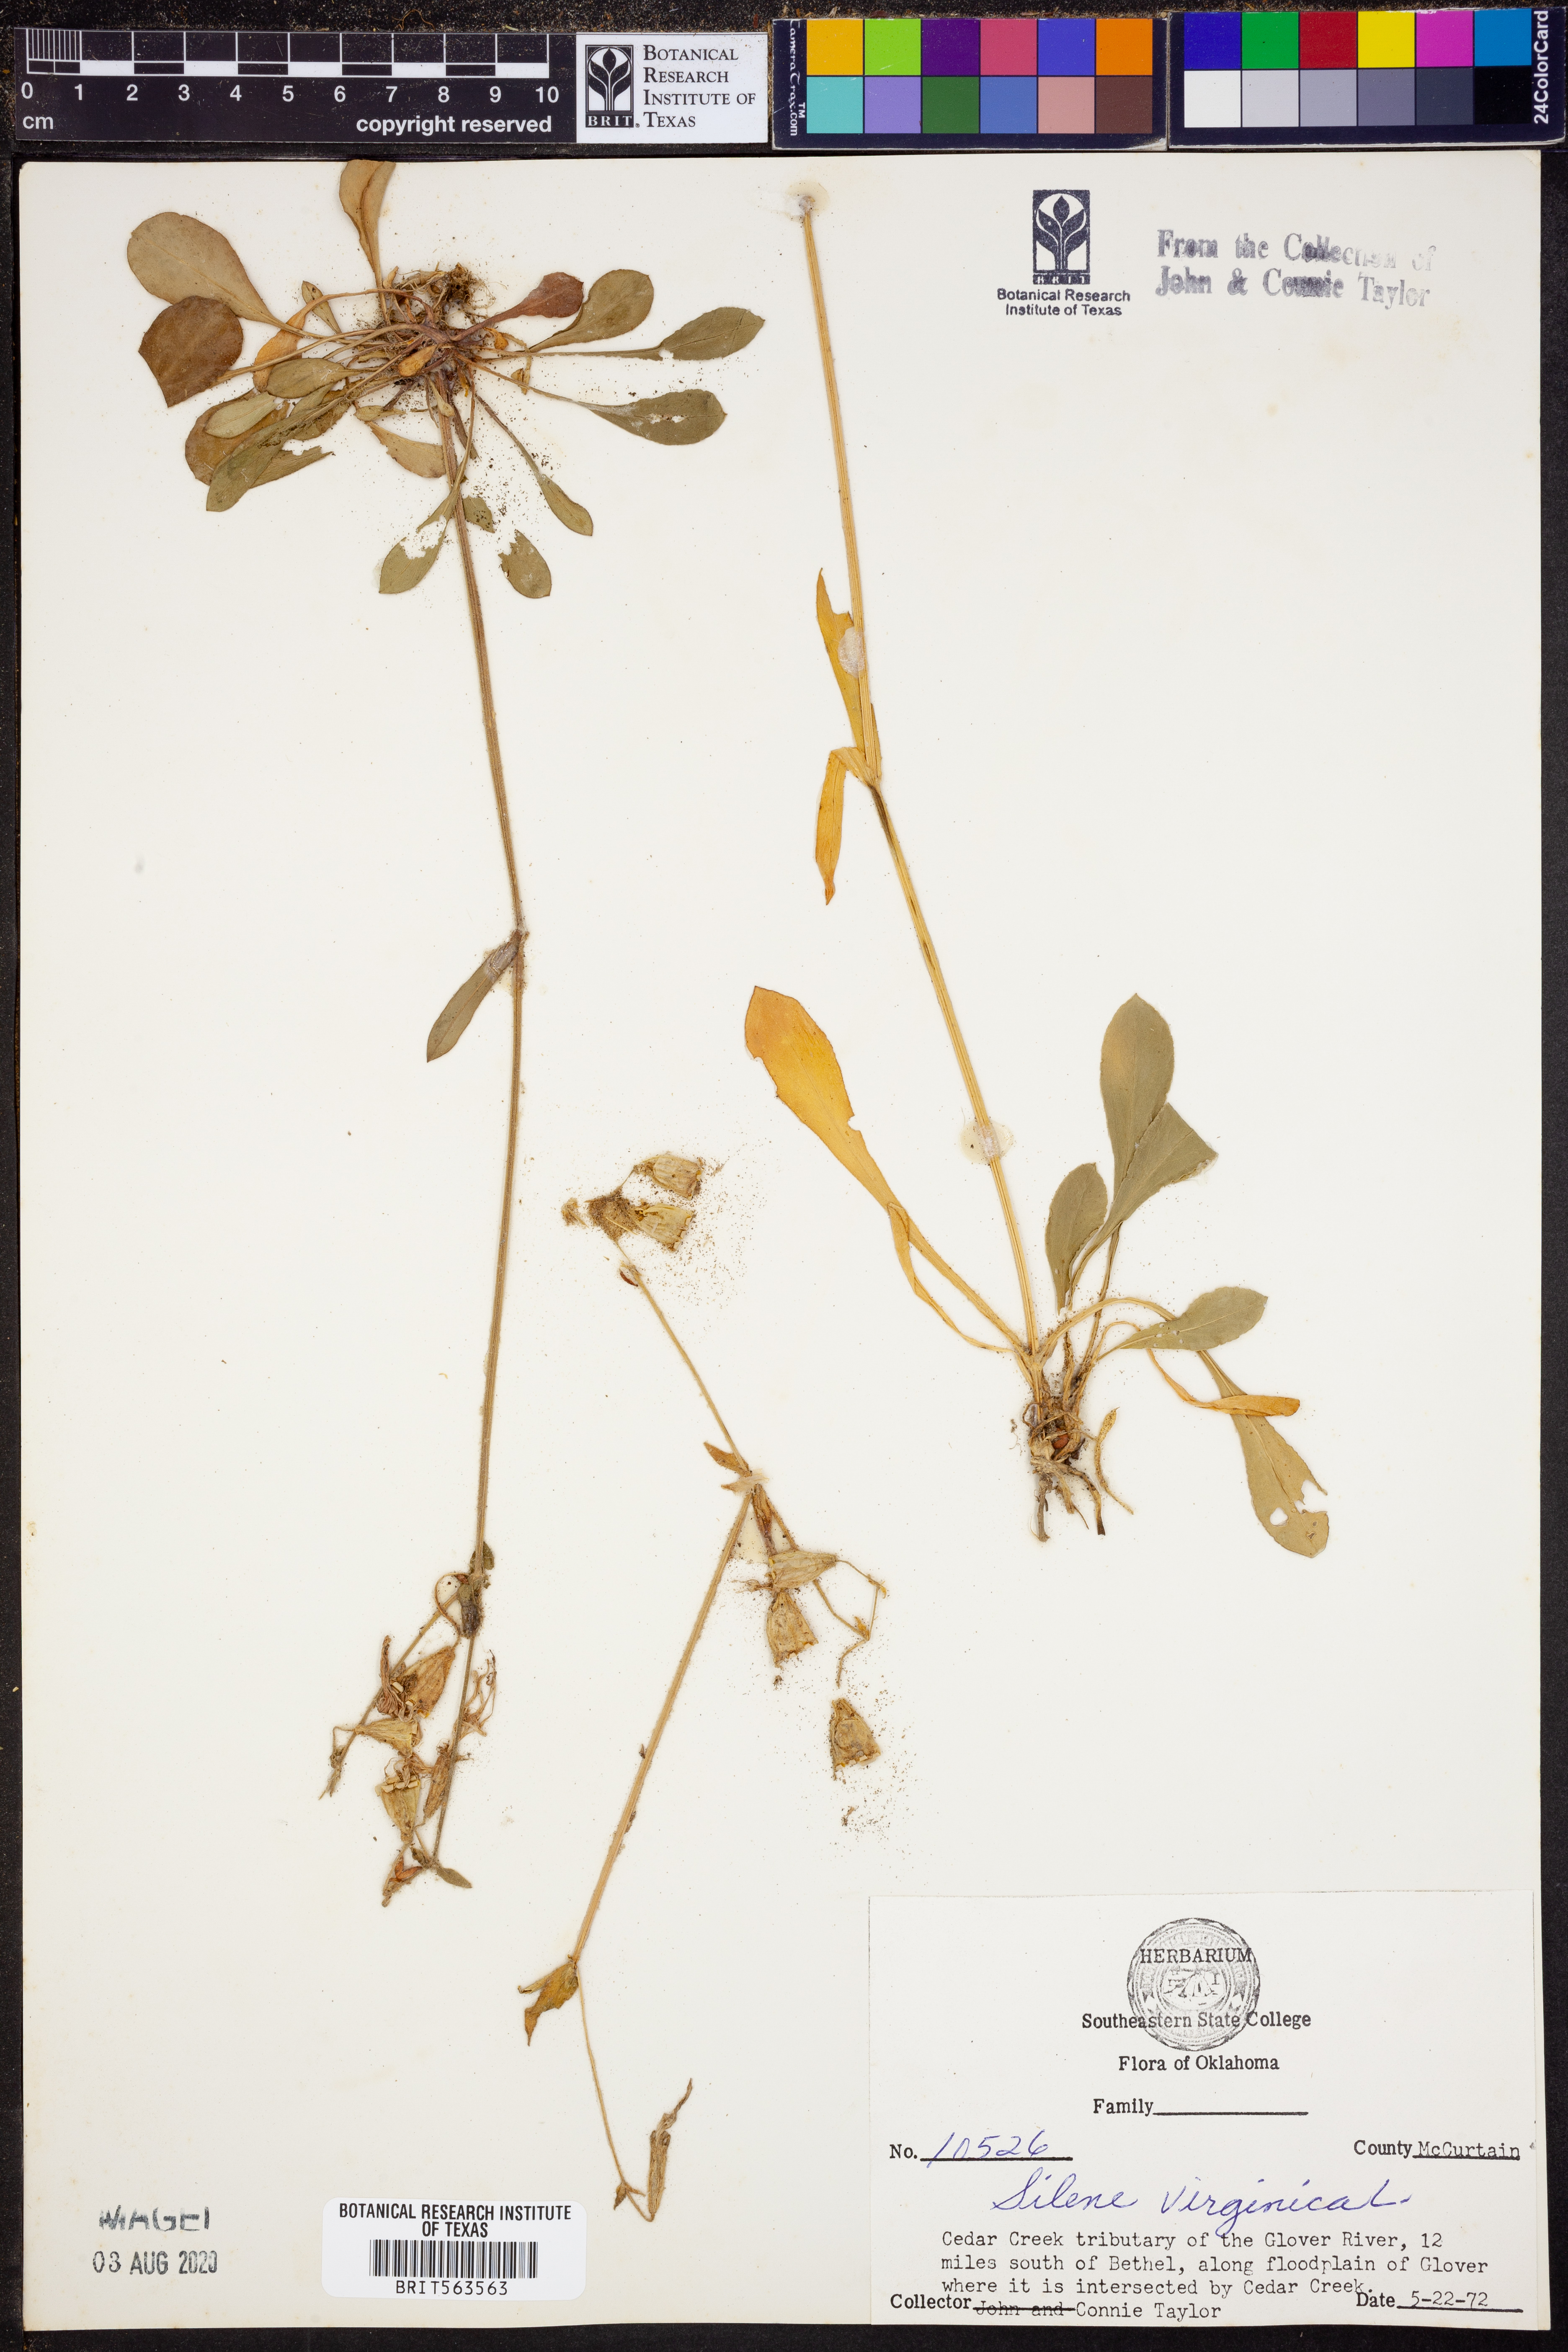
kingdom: Plantae
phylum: Tracheophyta
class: Magnoliopsida
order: Caryophyllales
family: Caryophyllaceae
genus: Silene
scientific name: Silene virginica
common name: Fire-pink
